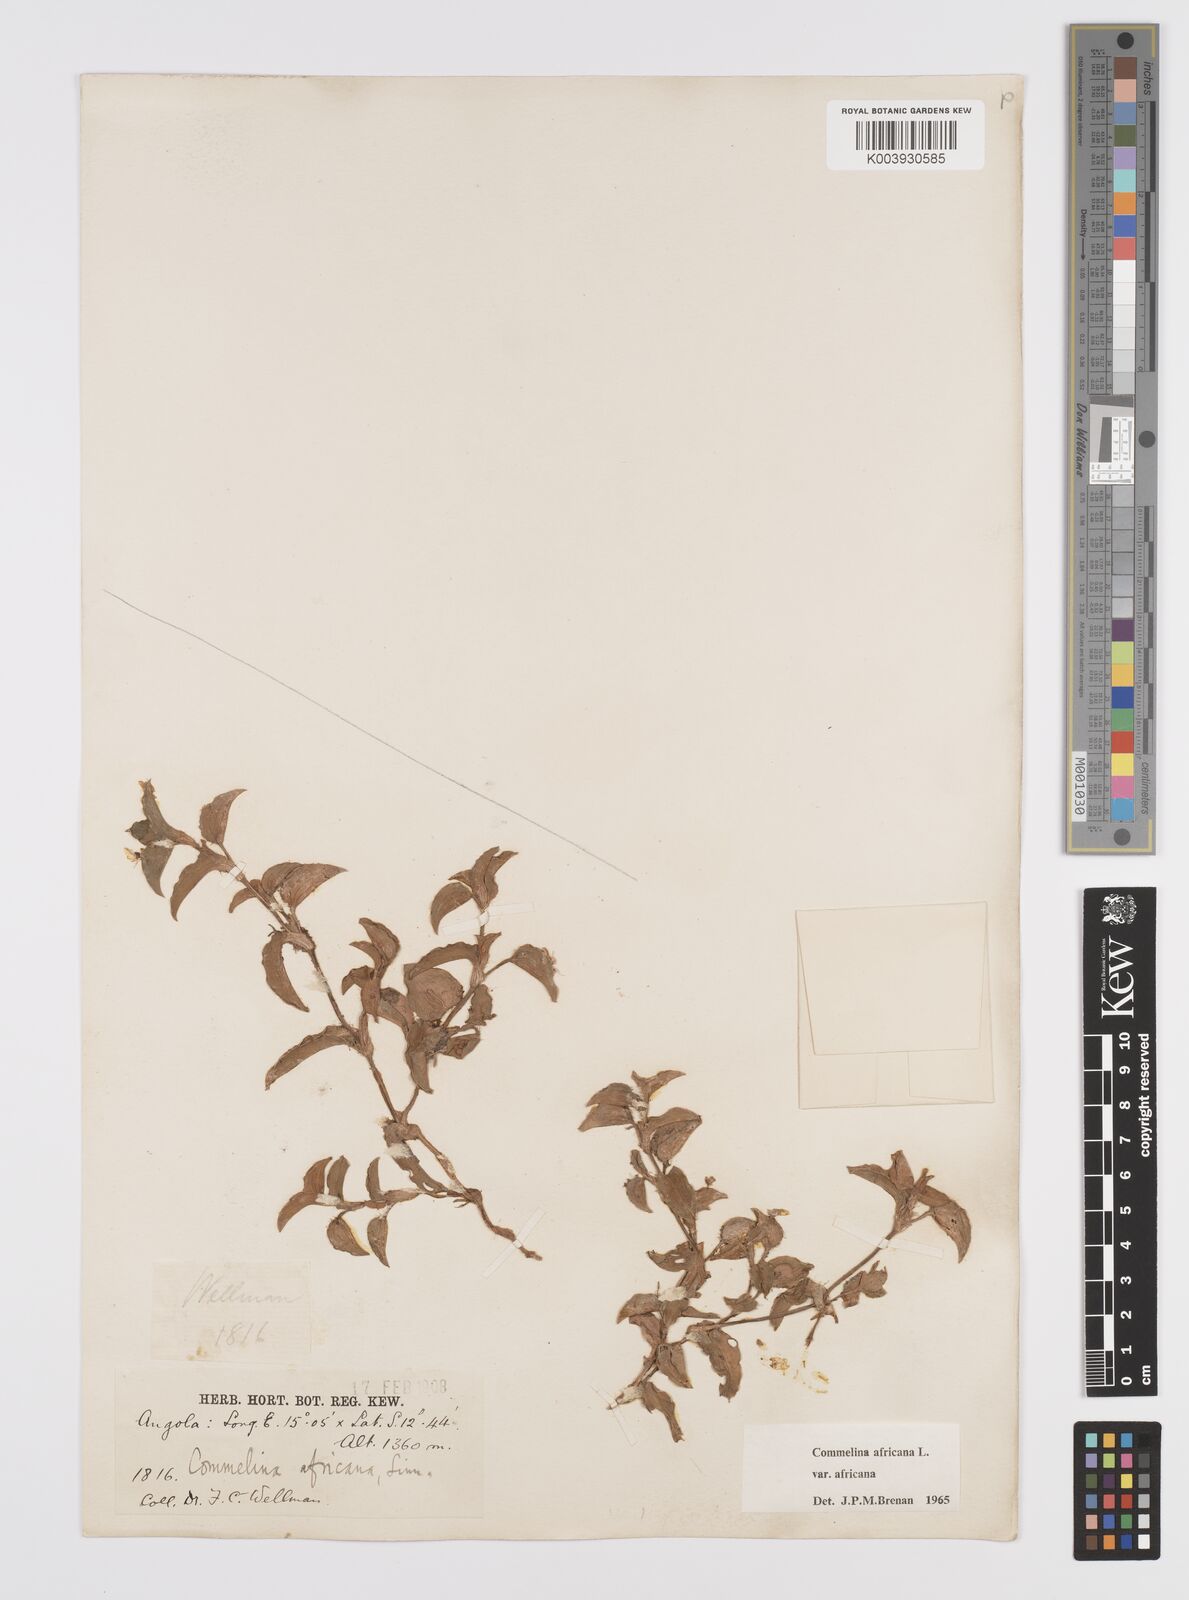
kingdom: Plantae
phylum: Tracheophyta
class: Liliopsida
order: Commelinales
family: Commelinaceae
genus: Commelina
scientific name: Commelina africana
